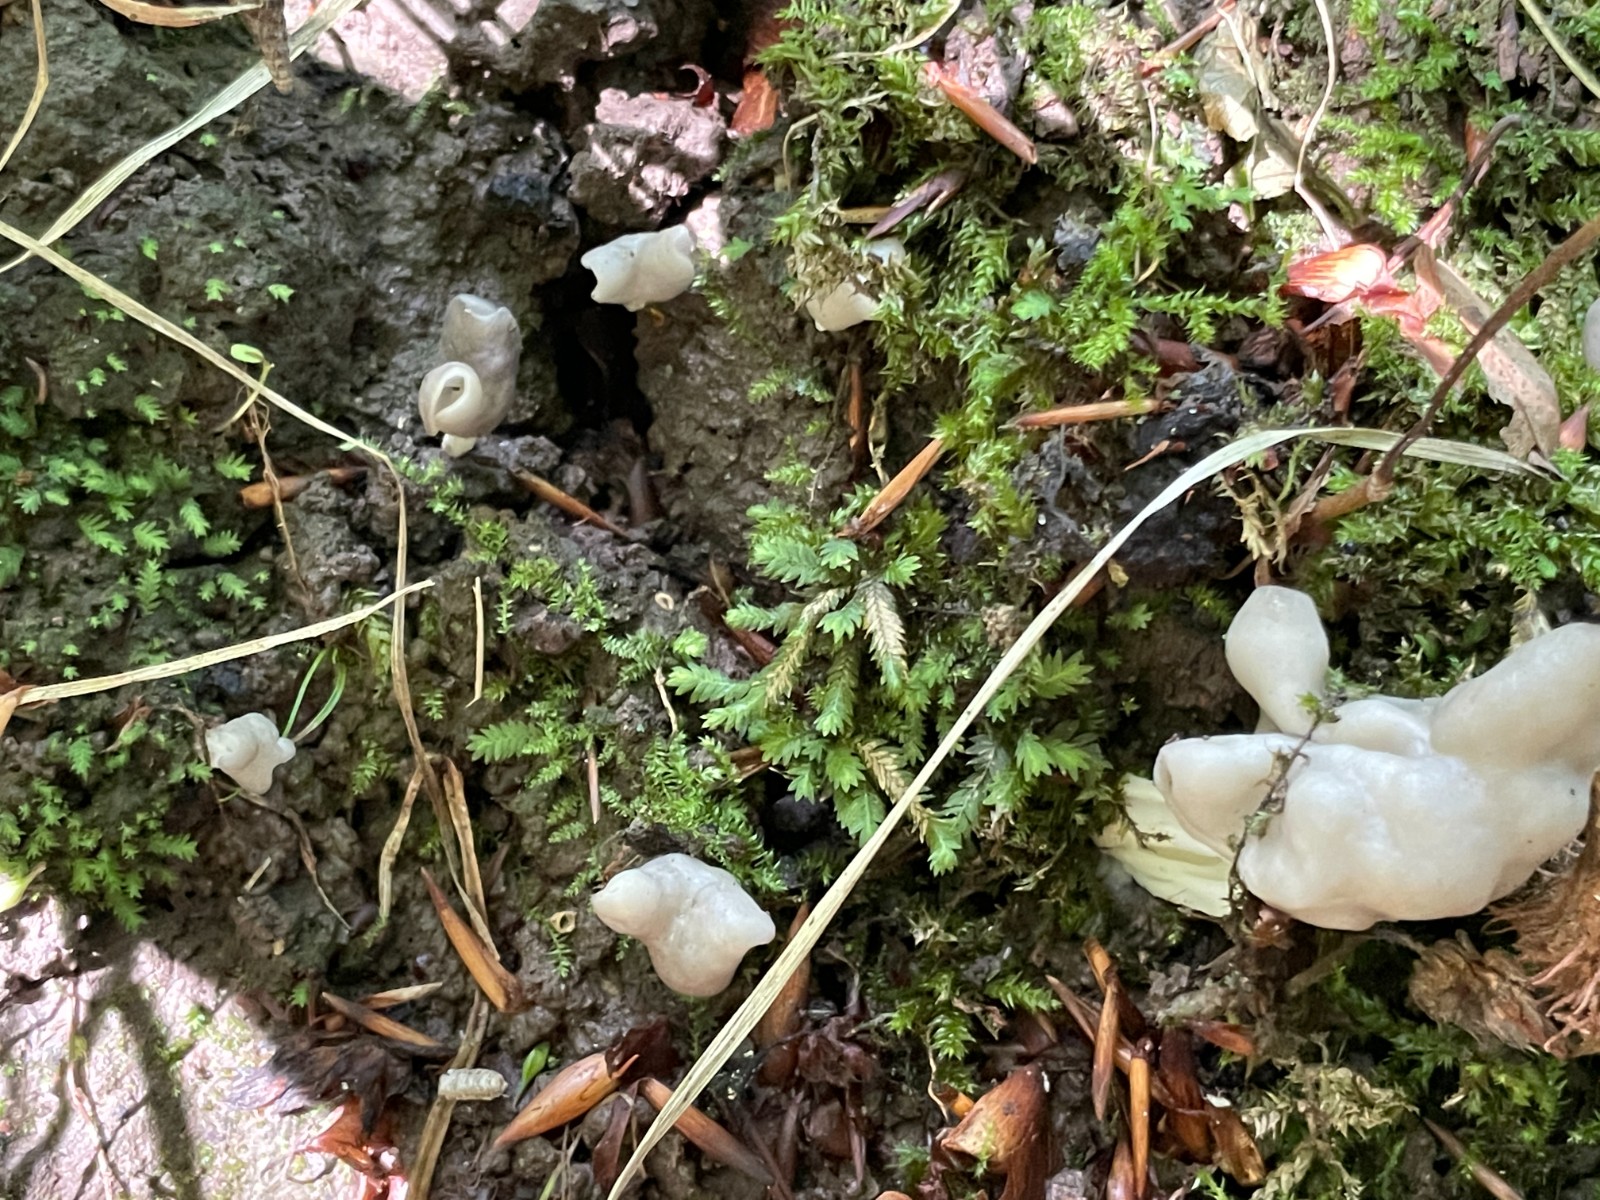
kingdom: Fungi
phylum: Ascomycota
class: Pezizomycetes
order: Pezizales
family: Helvellaceae
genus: Helvella
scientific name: Helvella lacunosa
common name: grubet foldhat
